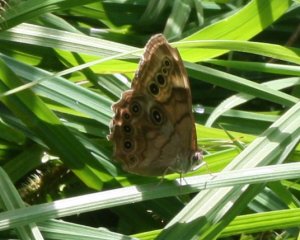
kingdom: Animalia
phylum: Arthropoda
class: Insecta
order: Lepidoptera
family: Nymphalidae
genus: Lethe
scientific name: Lethe anthedon
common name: Northern Pearly-Eye
